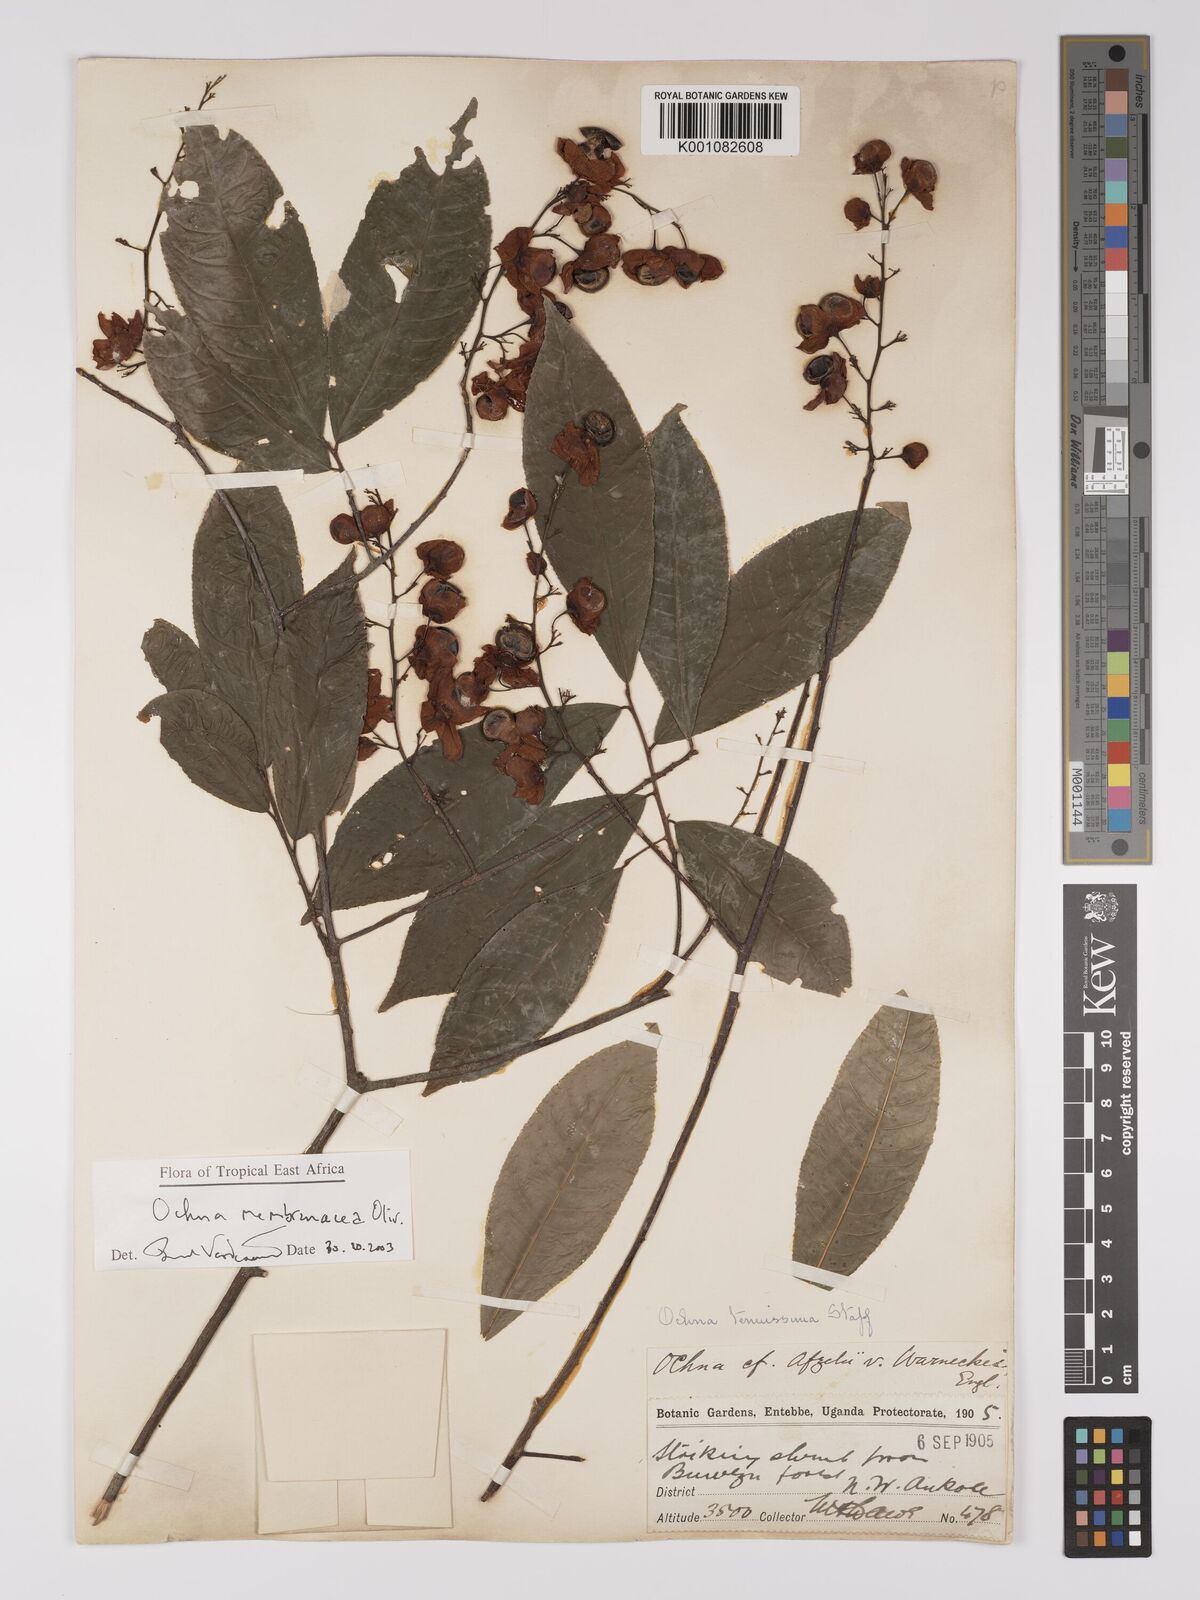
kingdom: Plantae
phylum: Tracheophyta
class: Magnoliopsida
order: Malpighiales
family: Ochnaceae
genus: Ochna
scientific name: Ochna membranacea
